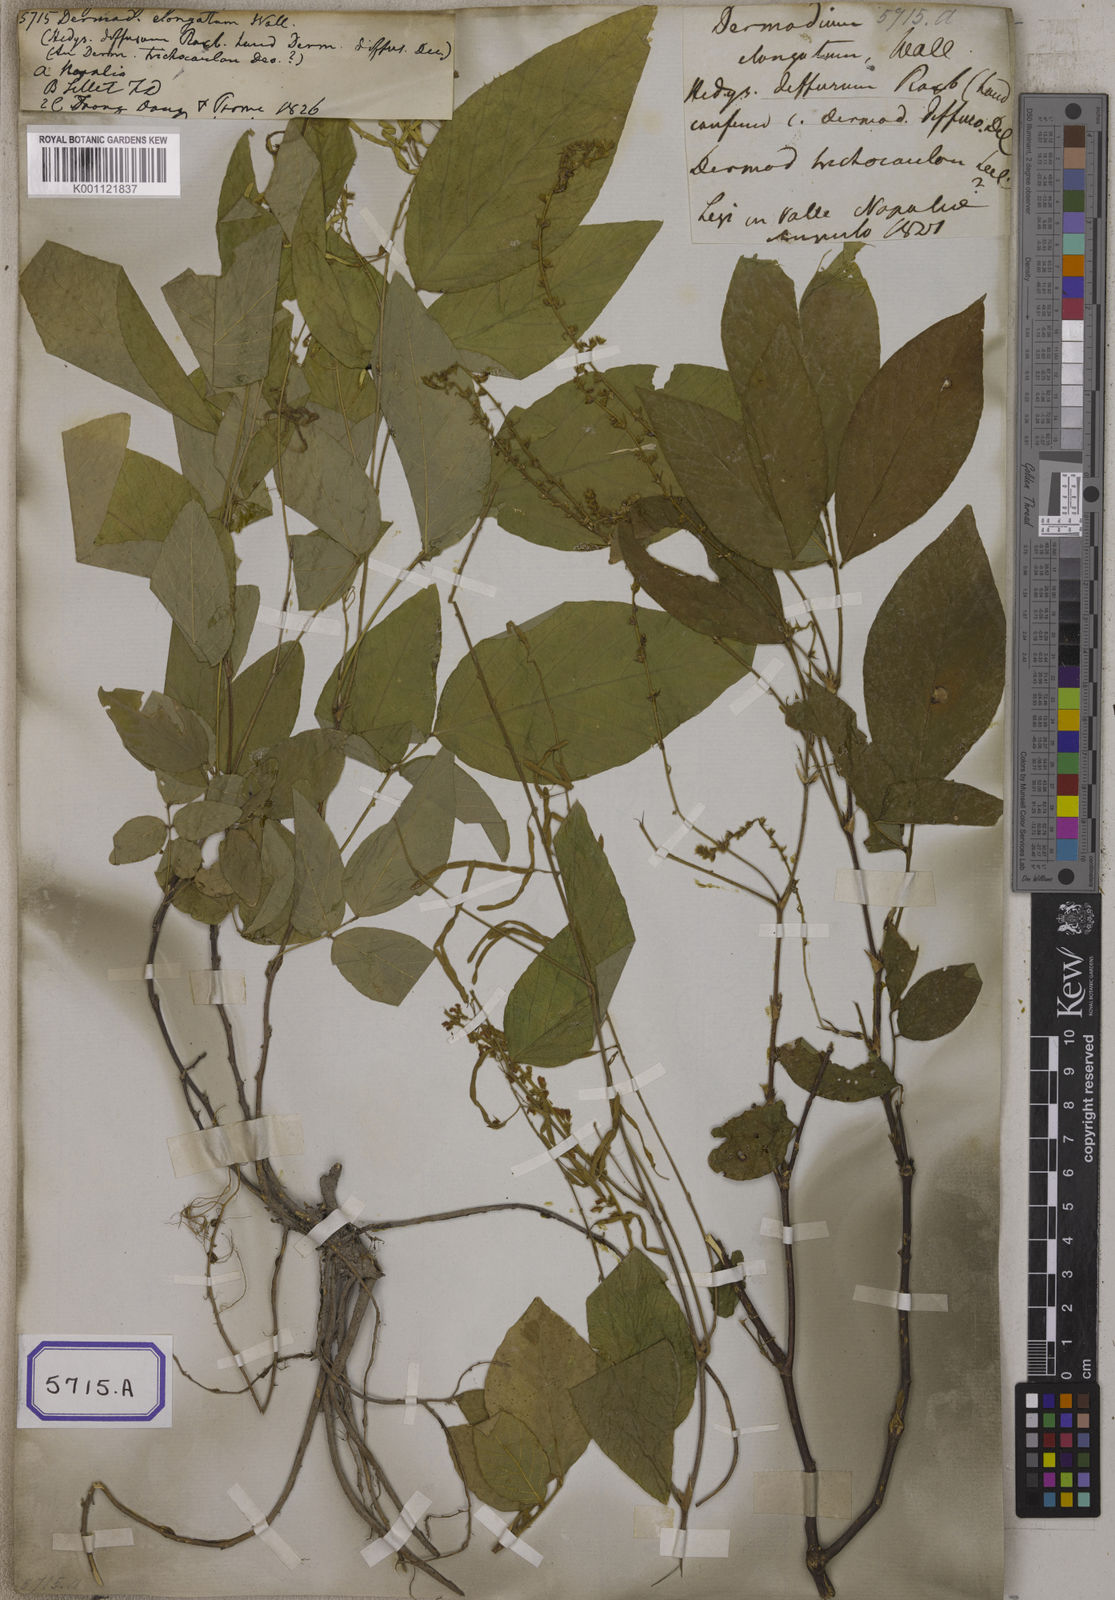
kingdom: Plantae
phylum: Tracheophyta
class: Magnoliopsida
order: Fabales
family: Fabaceae
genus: Desmodium
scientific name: Desmodium
